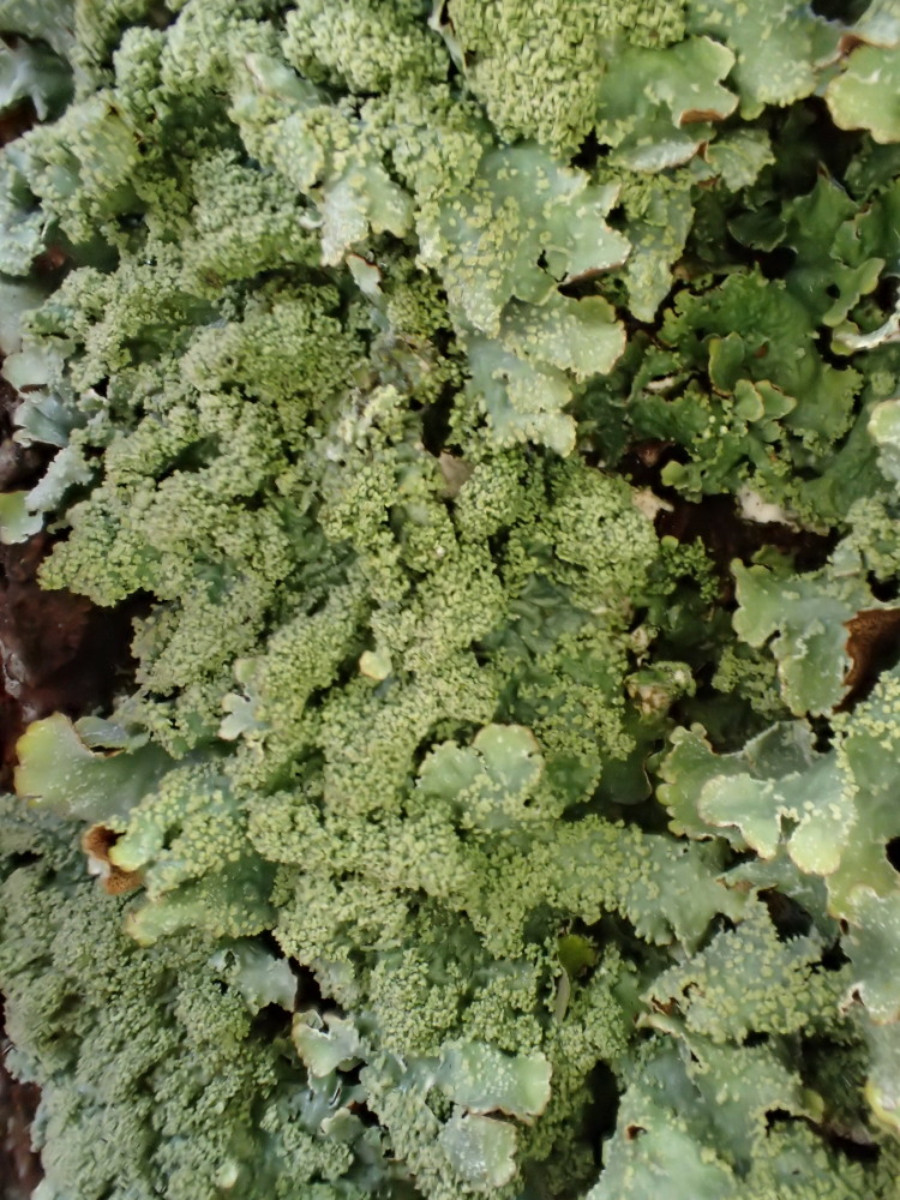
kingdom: Fungi
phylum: Ascomycota
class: Lecanoromycetes
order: Lecanorales
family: Parmeliaceae
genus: Parmelia
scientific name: Parmelia submontana
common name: langlobet skållav
